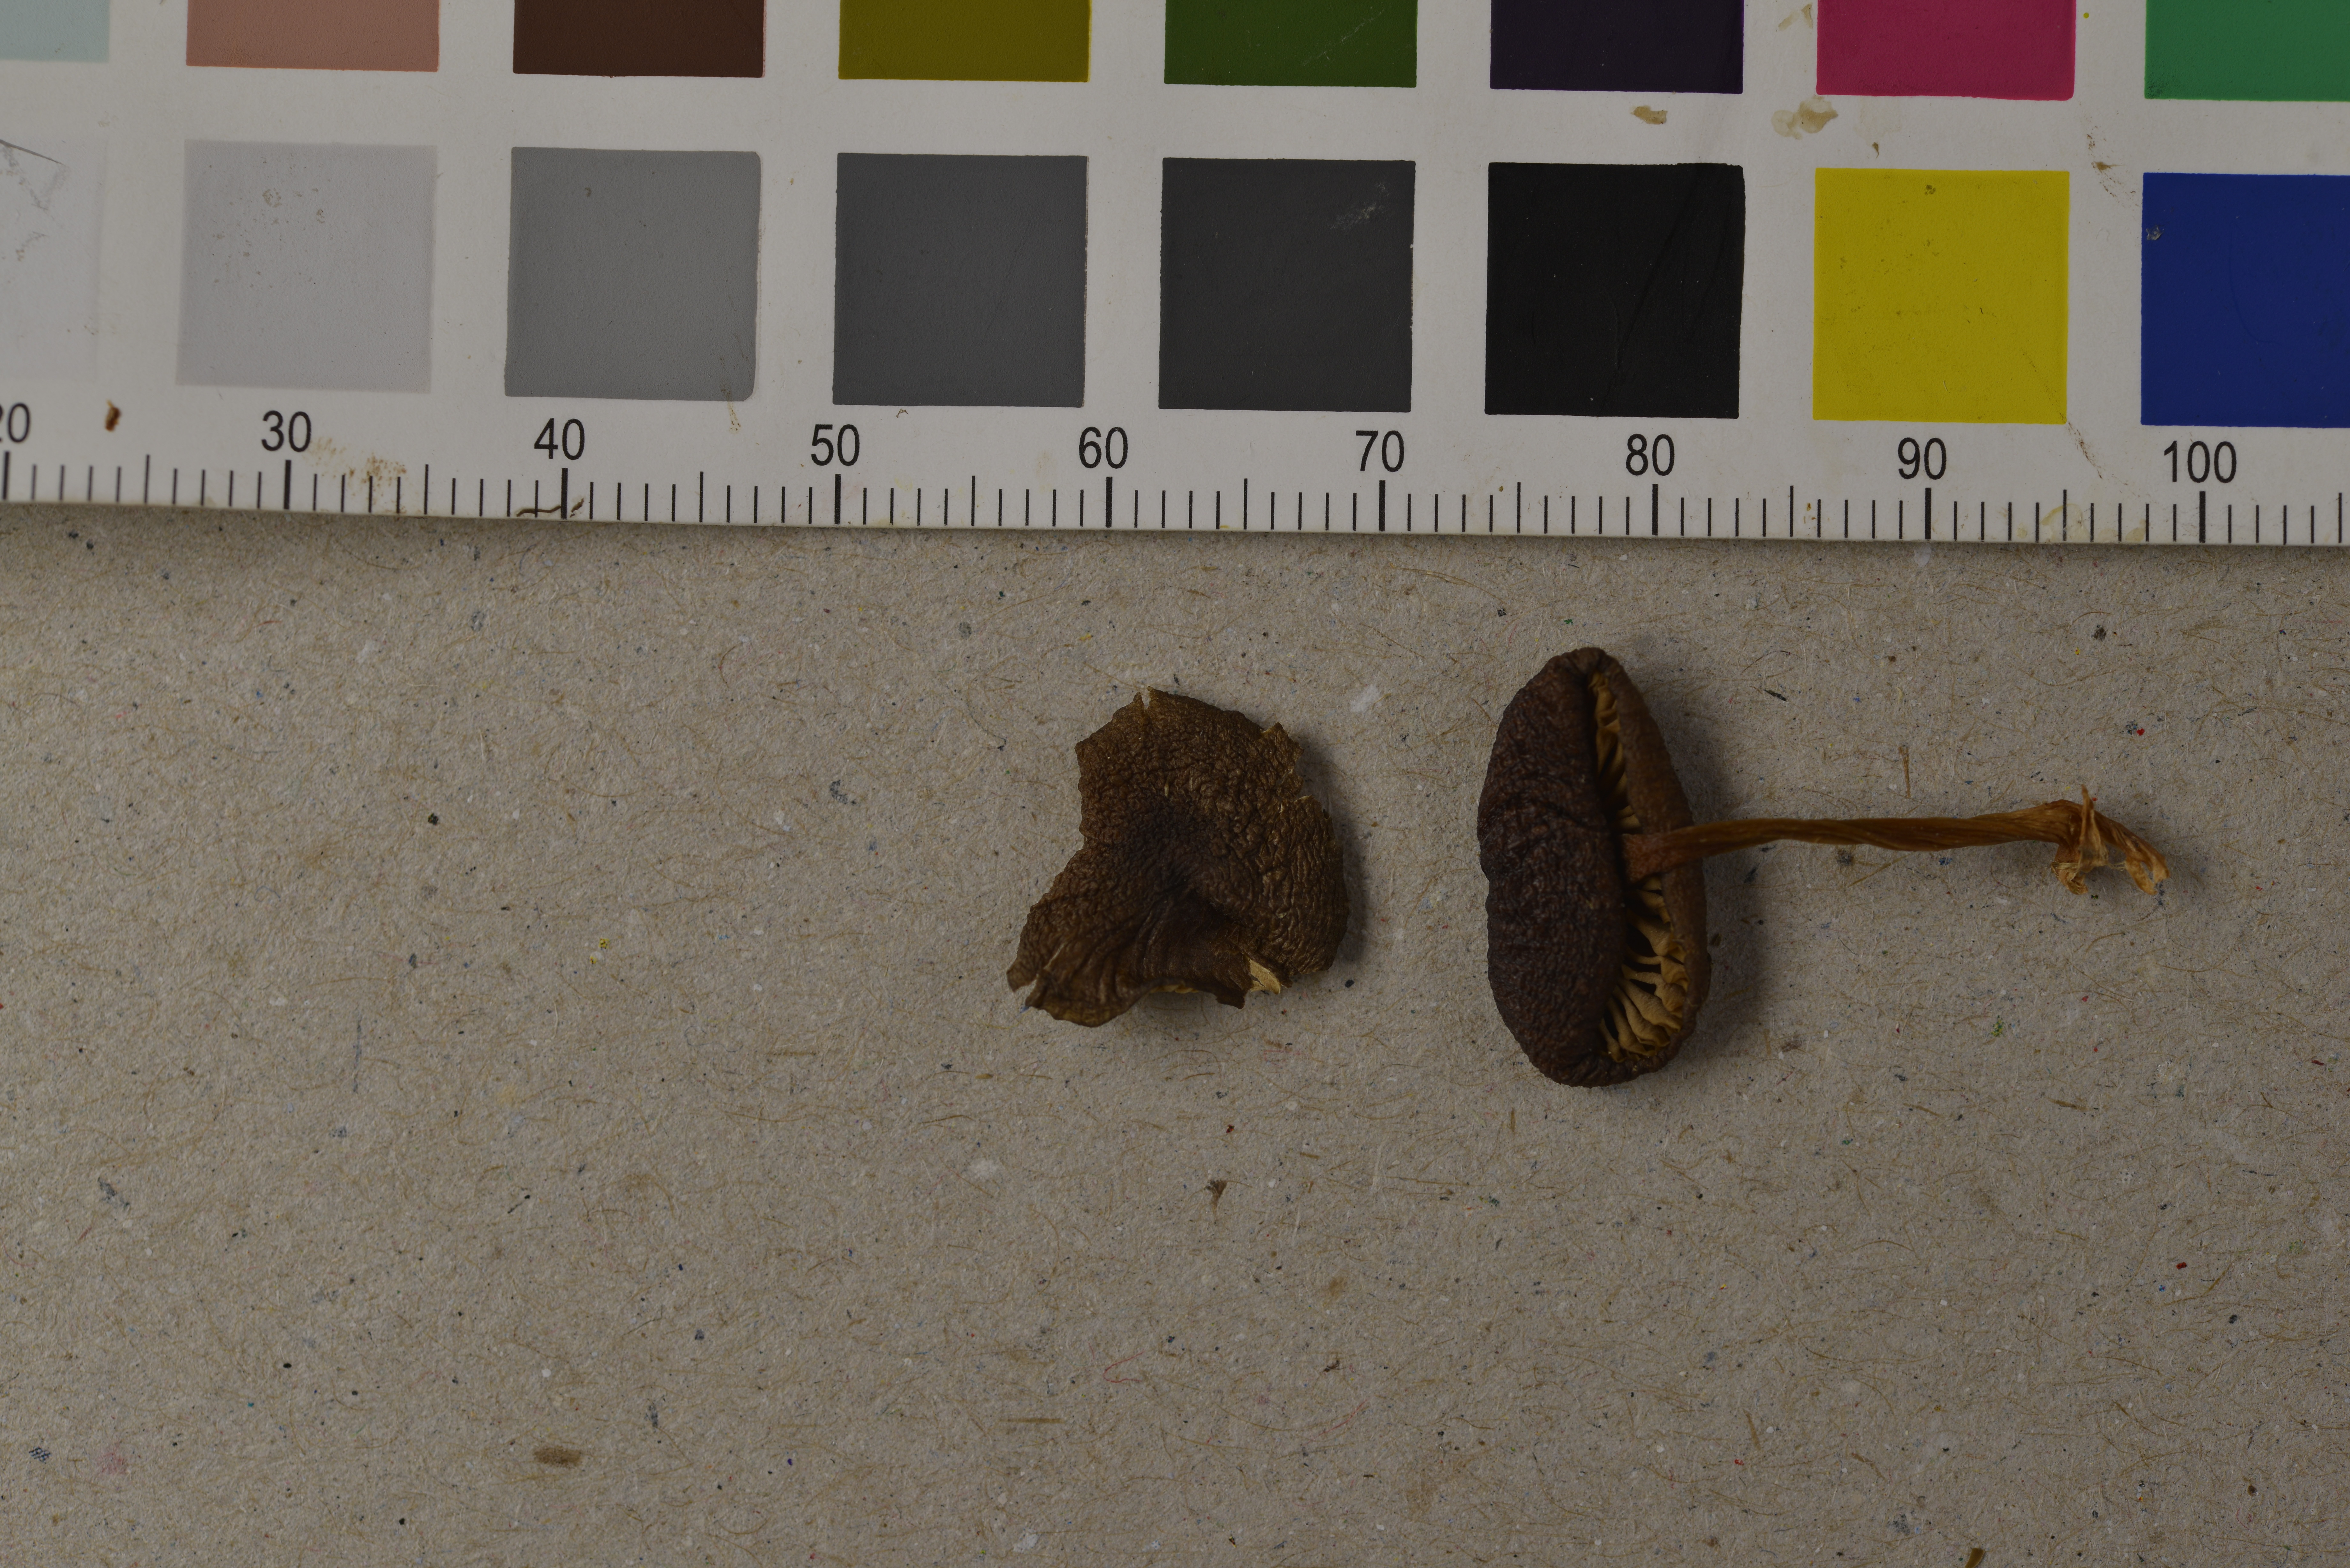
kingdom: Fungi
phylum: Basidiomycota
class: Agaricomycetes
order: Agaricales
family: Entolomataceae
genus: Entoloma
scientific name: Entoloma xanthochroum
